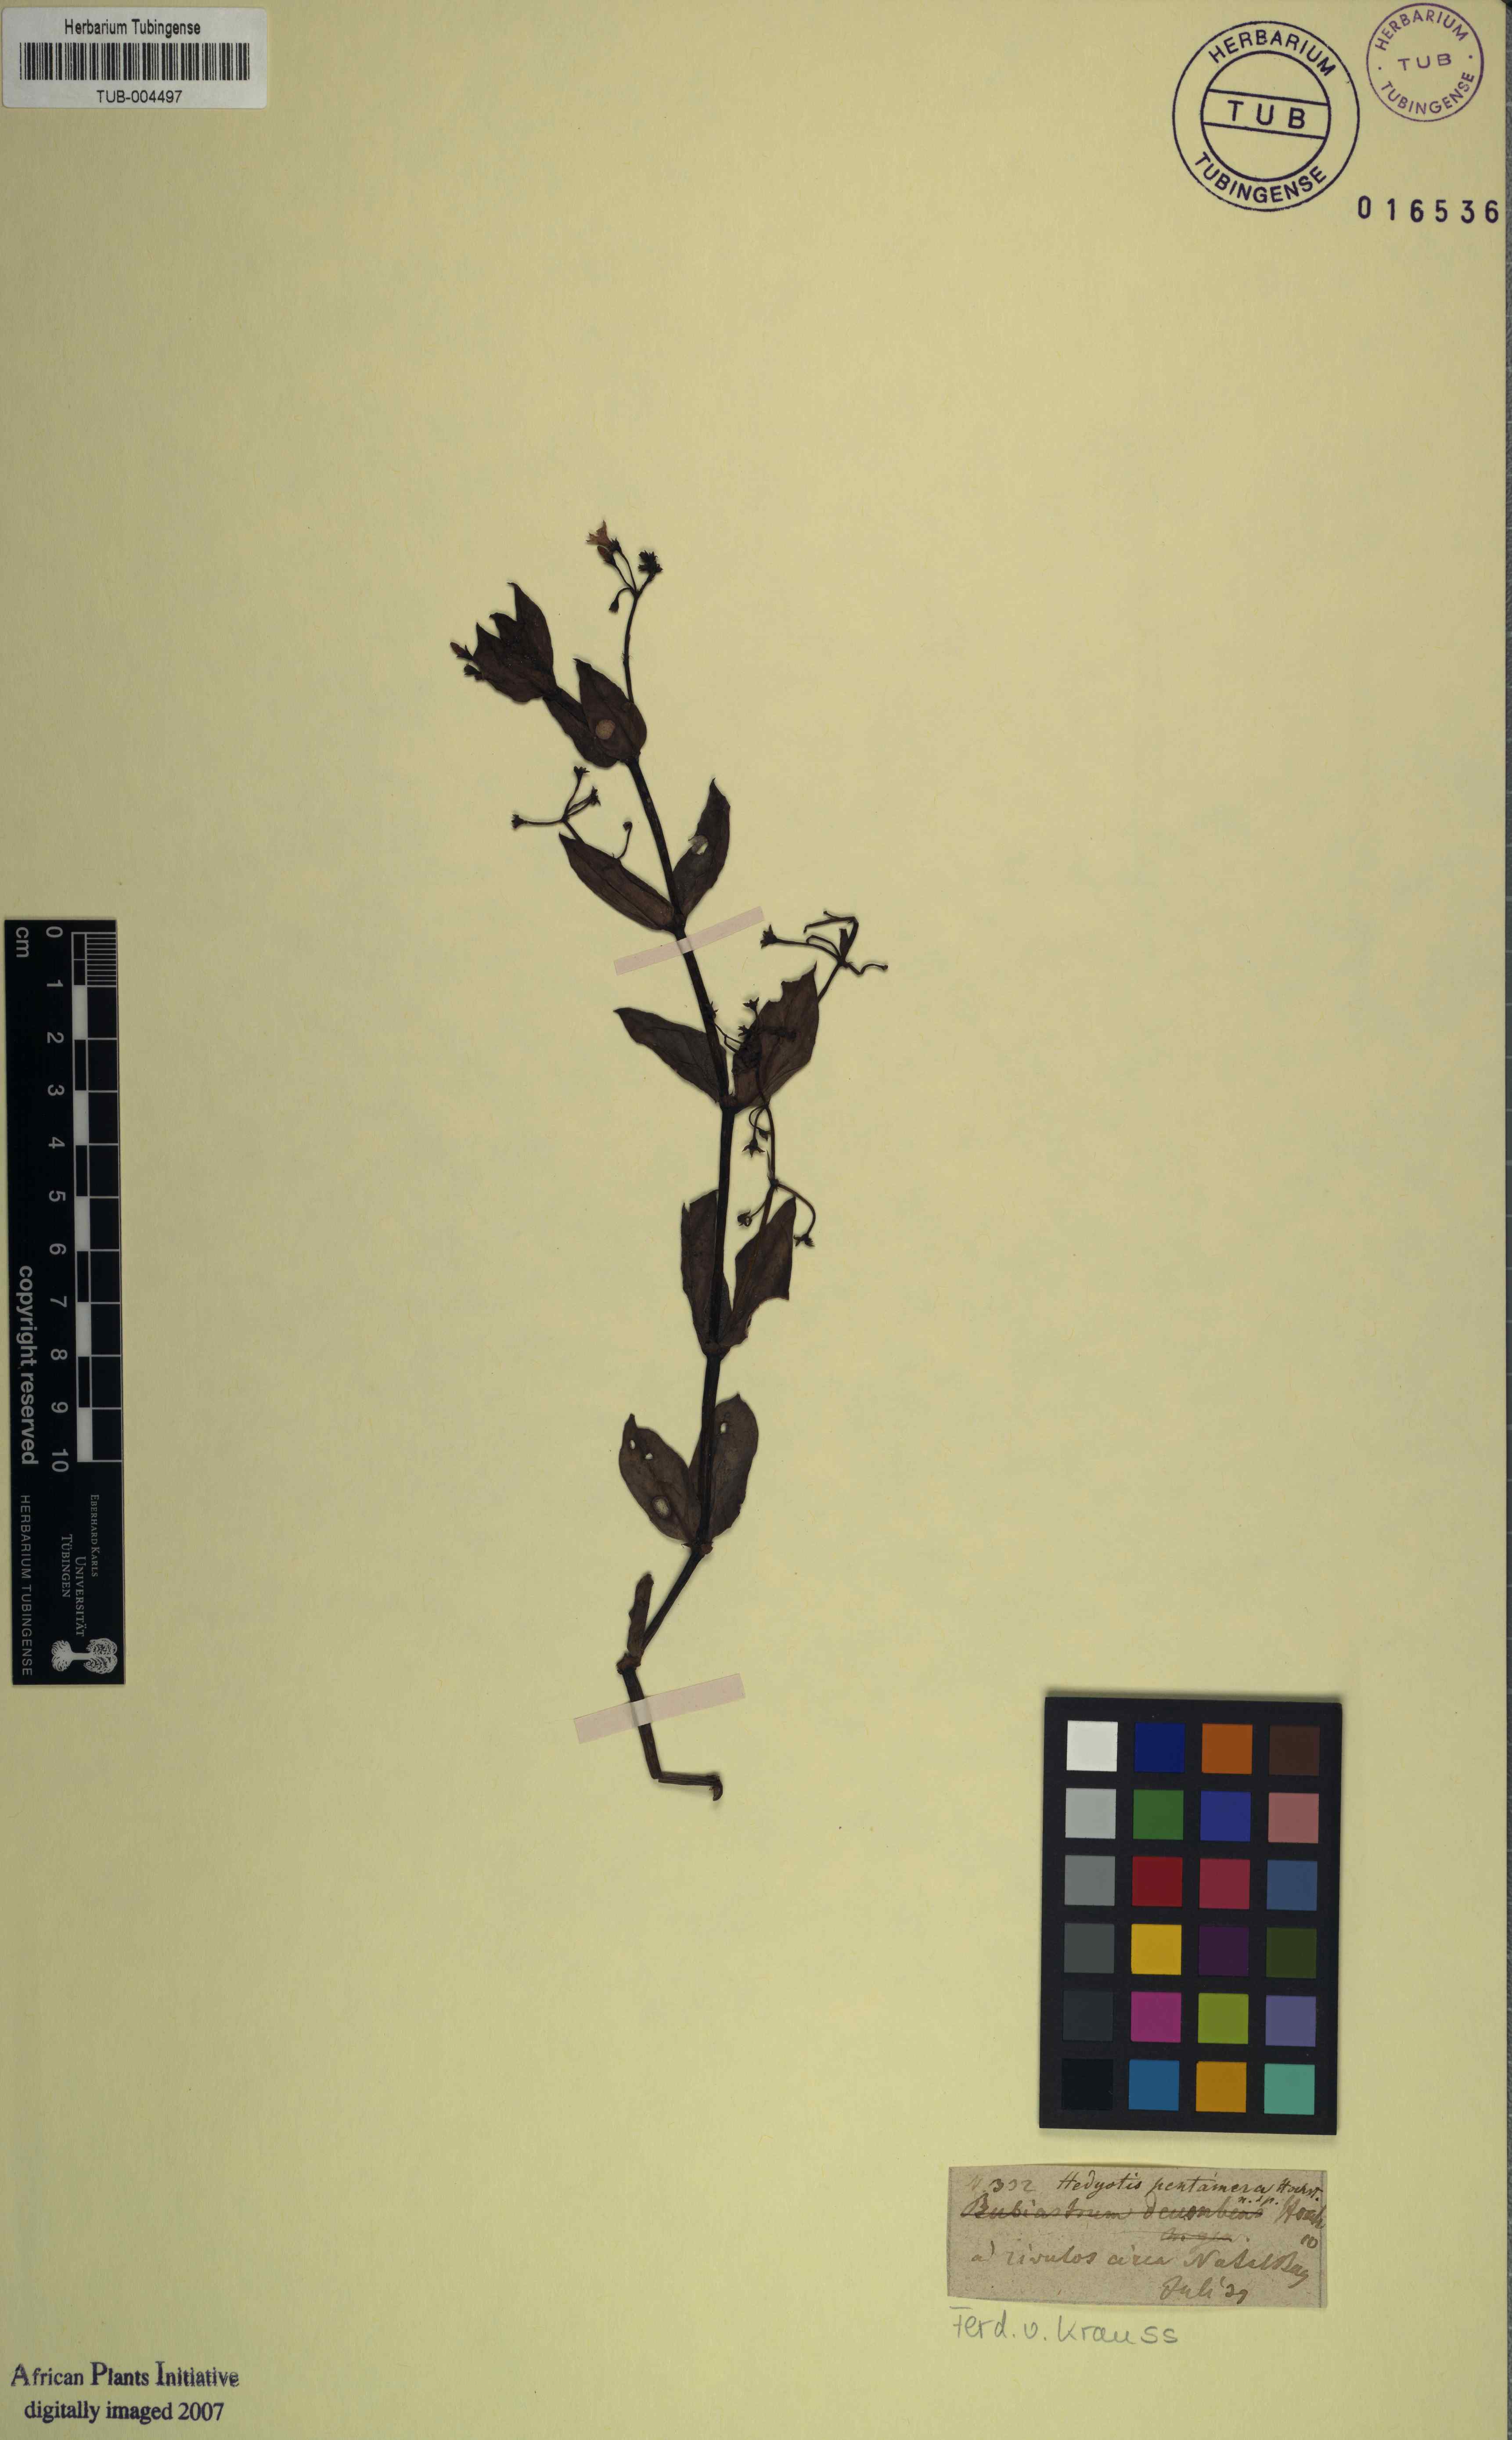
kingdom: Plantae
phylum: Tracheophyta
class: Magnoliopsida
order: Gentianales
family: Rubiaceae
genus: Pentodon
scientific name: Pentodon pentandrus
